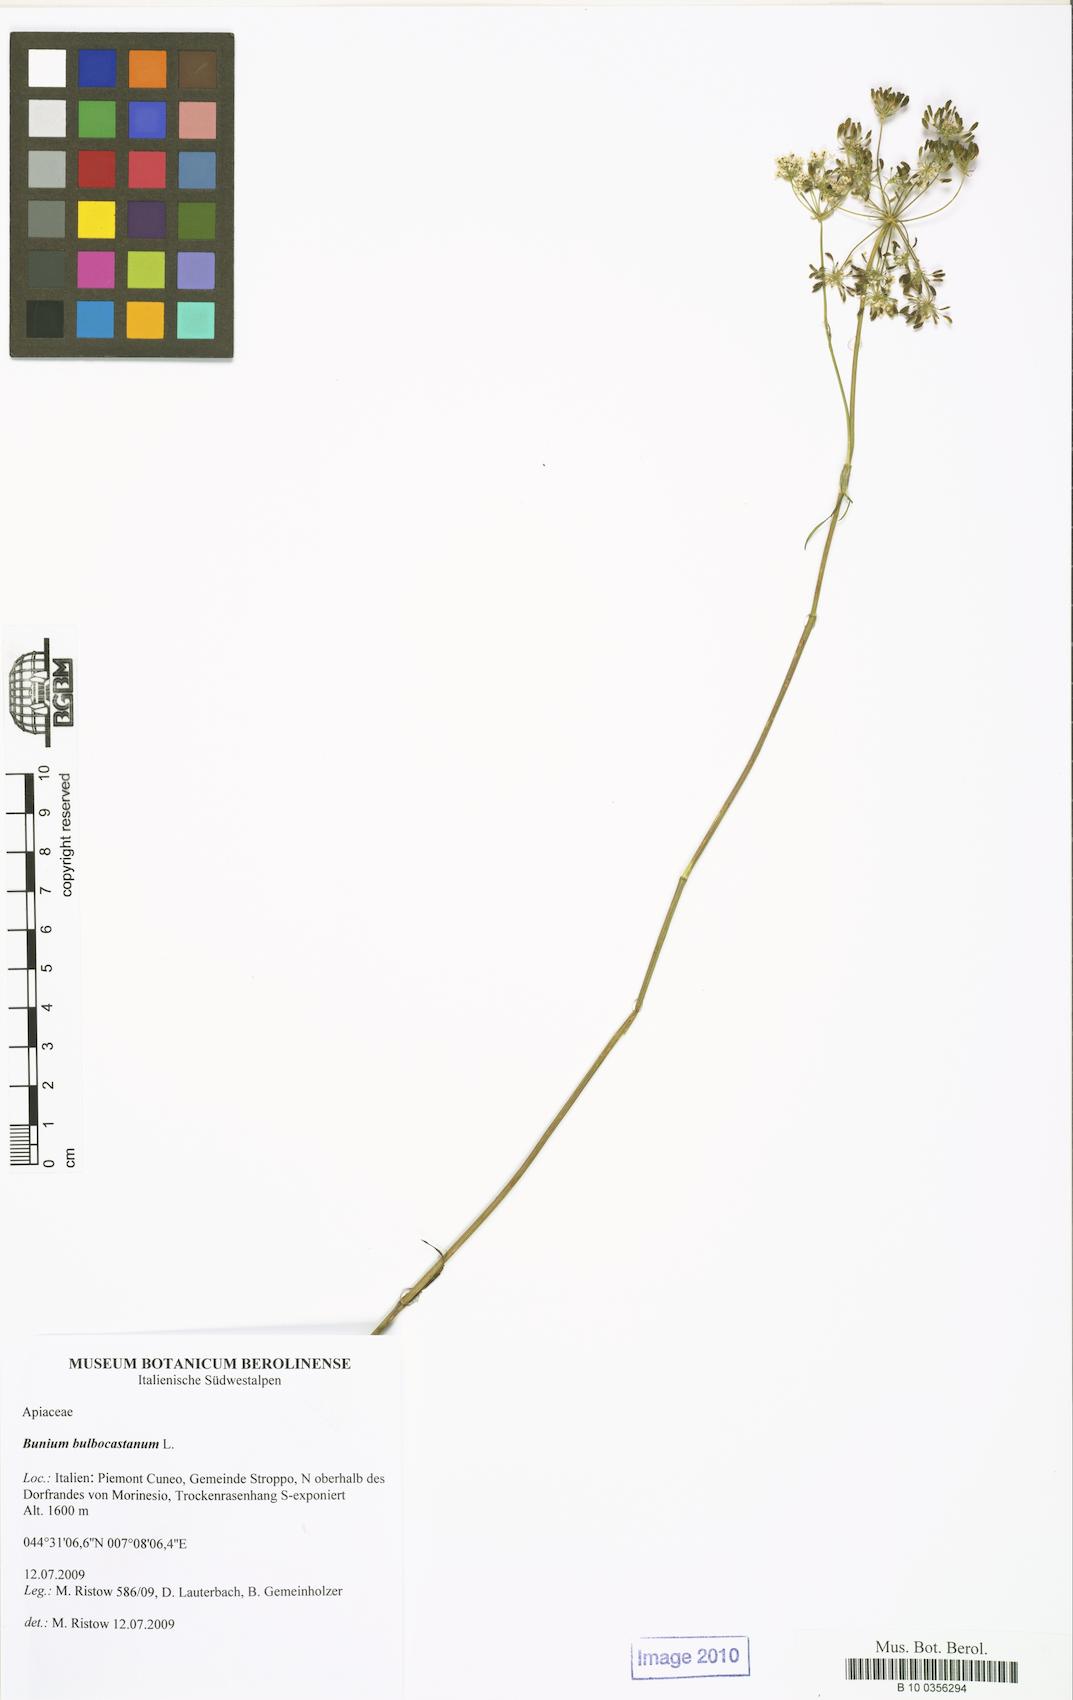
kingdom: Plantae
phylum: Tracheophyta
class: Magnoliopsida
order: Apiales
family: Apiaceae
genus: Bunium
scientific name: Bunium bulbocastanum
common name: Great pignut
